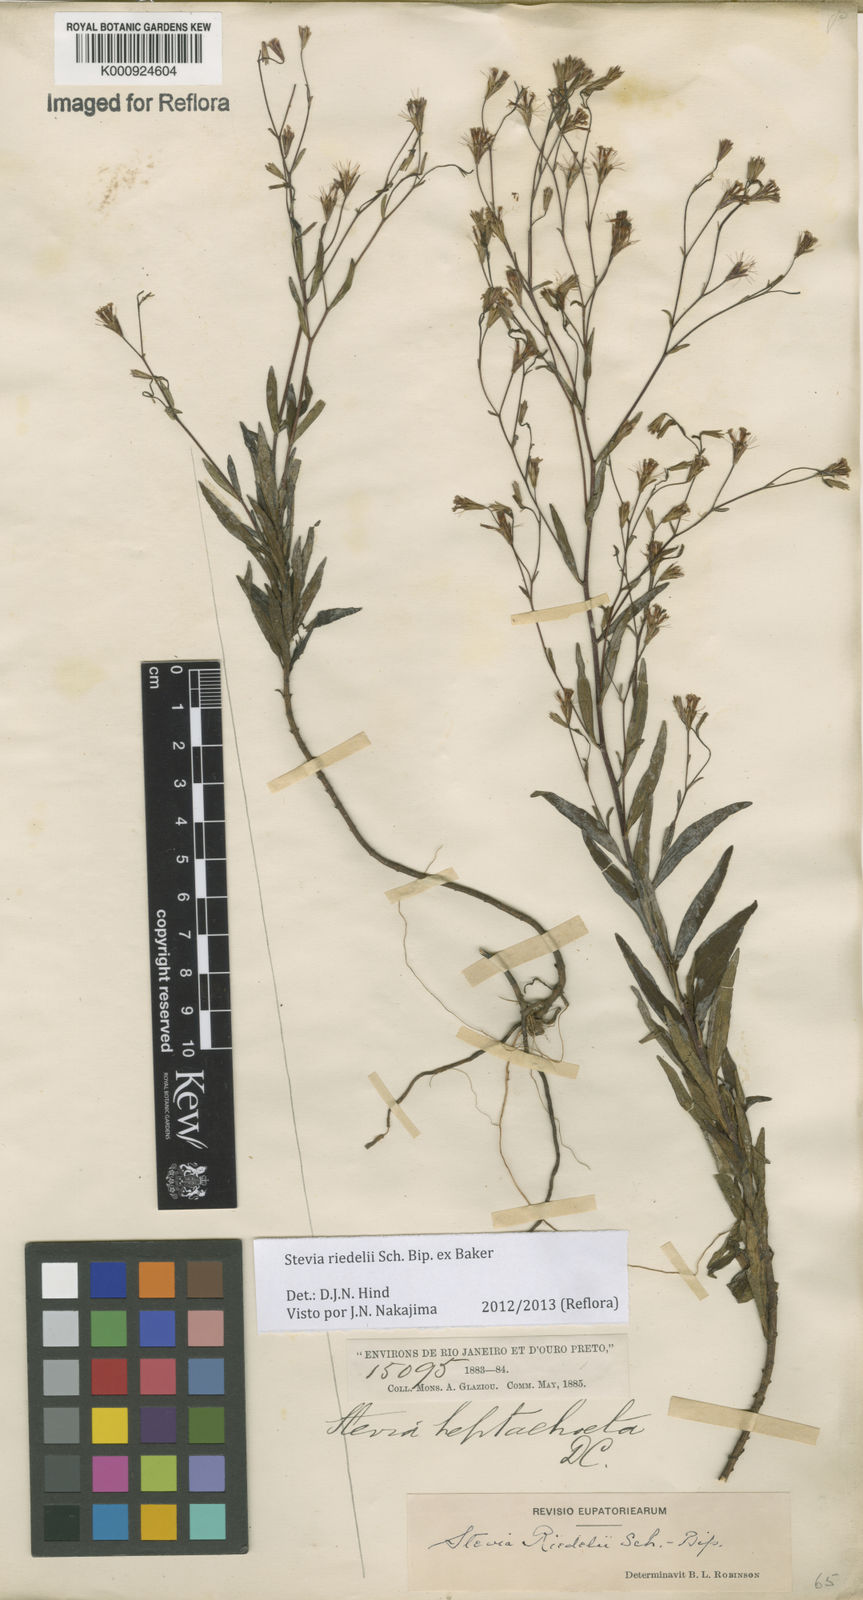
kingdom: Plantae
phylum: Tracheophyta
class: Magnoliopsida
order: Asterales
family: Asteraceae
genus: Stevia
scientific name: Stevia riedelii
